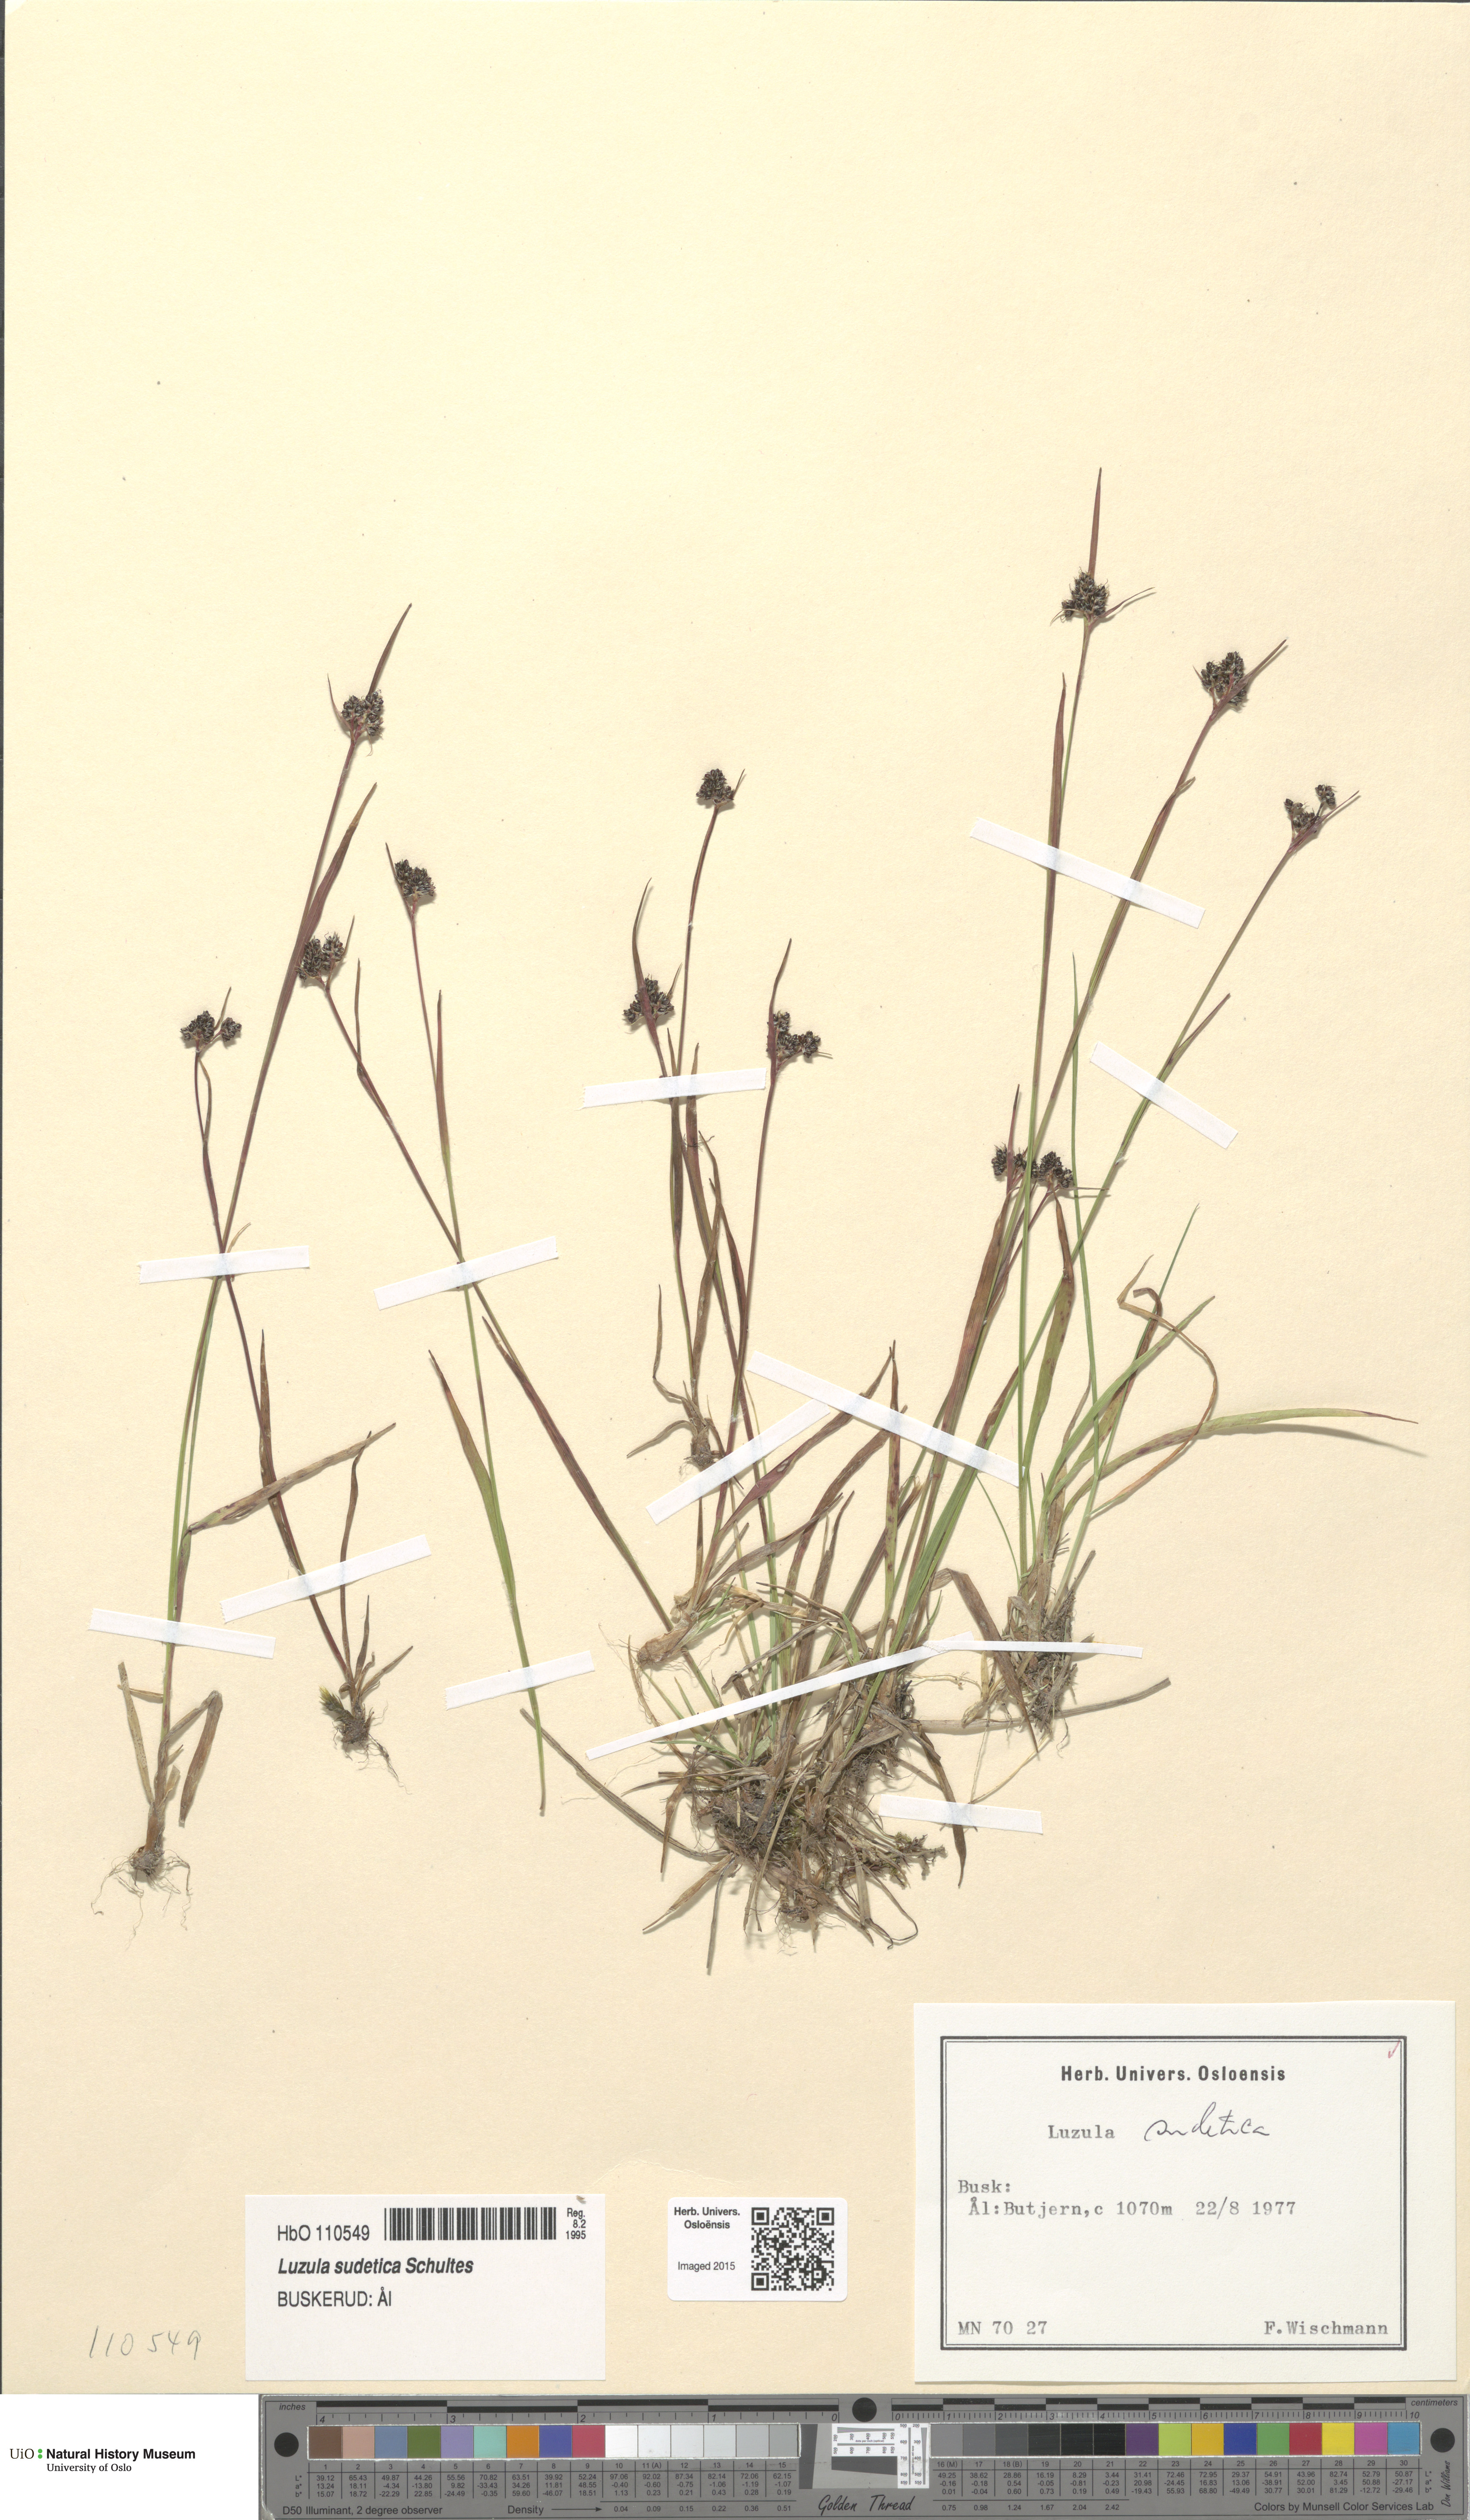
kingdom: Plantae
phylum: Tracheophyta
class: Liliopsida
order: Poales
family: Juncaceae
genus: Luzula
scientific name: Luzula sudetica
